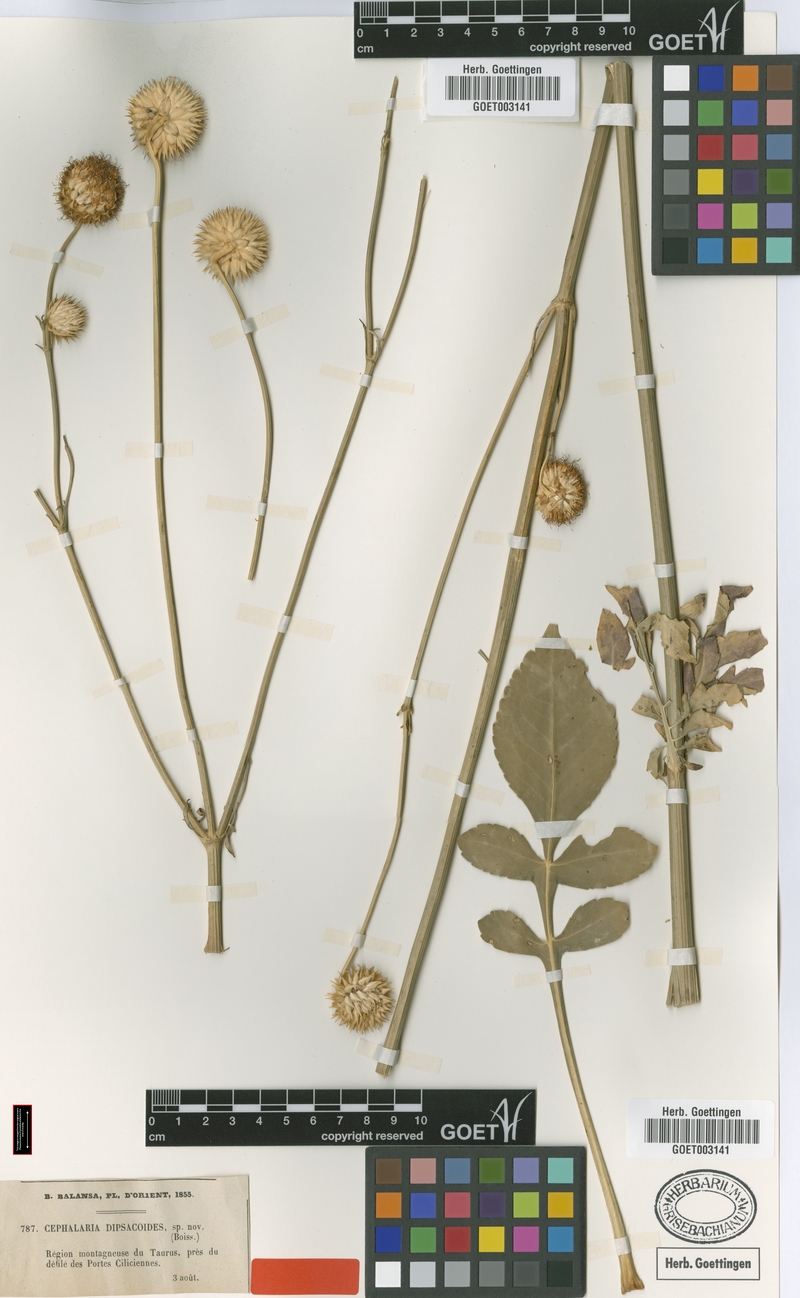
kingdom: Plantae
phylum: Tracheophyta
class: Magnoliopsida
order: Dipsacales
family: Caprifoliaceae
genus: Cephalaria
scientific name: Cephalaria balansae
